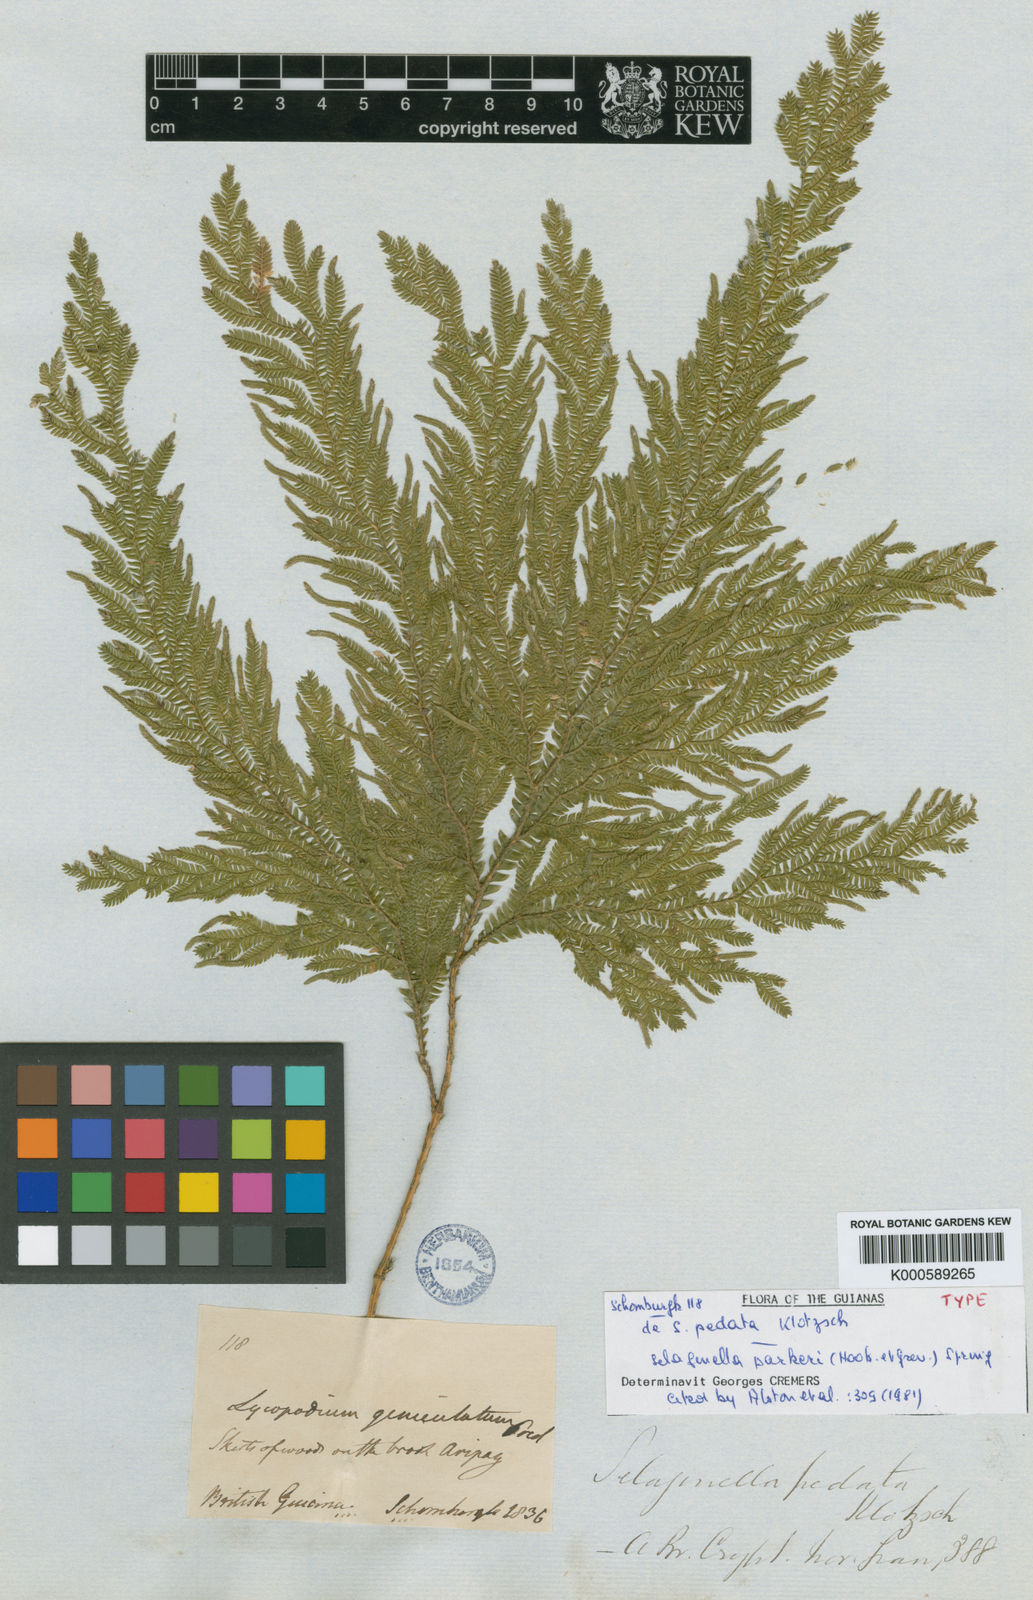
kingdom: Plantae
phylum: Tracheophyta
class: Lycopodiopsida
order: Selaginellales
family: Selaginellaceae
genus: Selaginella
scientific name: Selaginella parkeri
